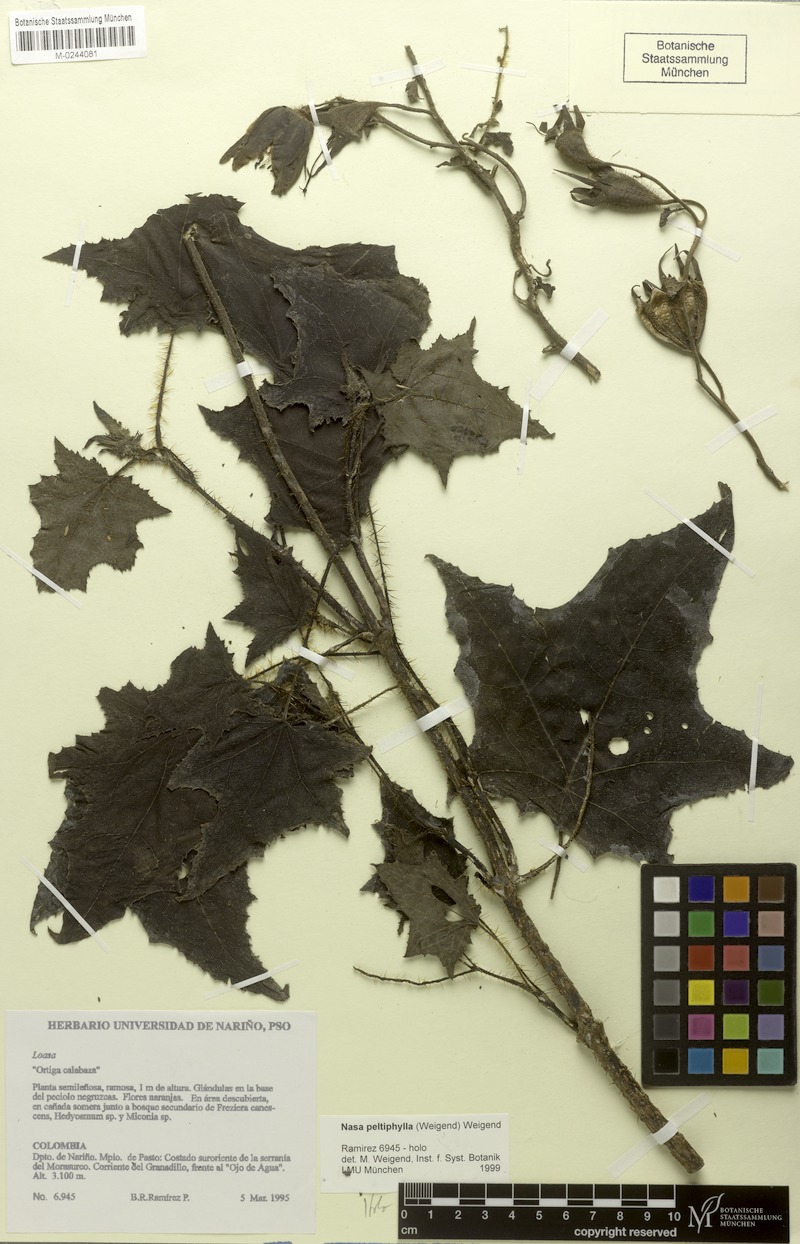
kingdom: Plantae
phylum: Tracheophyta
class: Magnoliopsida
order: Cornales
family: Loasaceae
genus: Nasa
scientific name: Nasa peltiphylla
